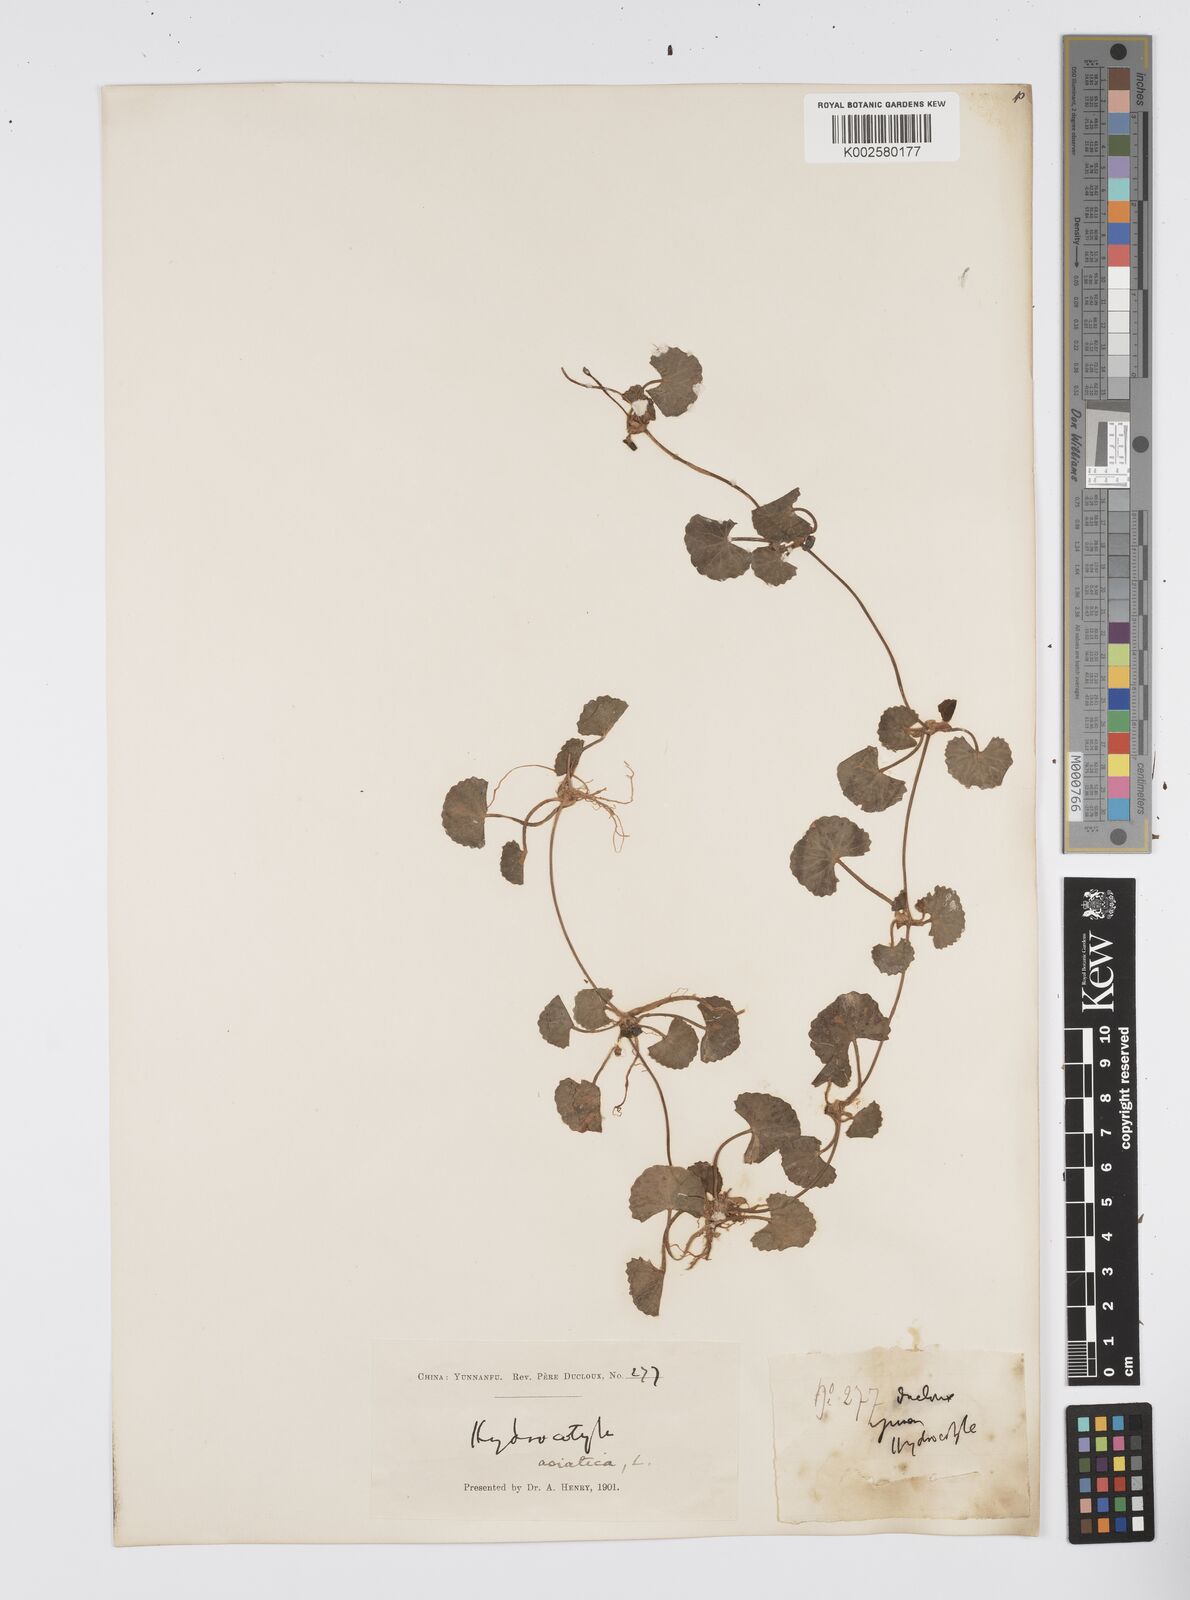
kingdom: Plantae
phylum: Tracheophyta
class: Magnoliopsida
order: Apiales
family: Apiaceae
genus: Centella
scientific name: Centella asiatica
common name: Spadeleaf
